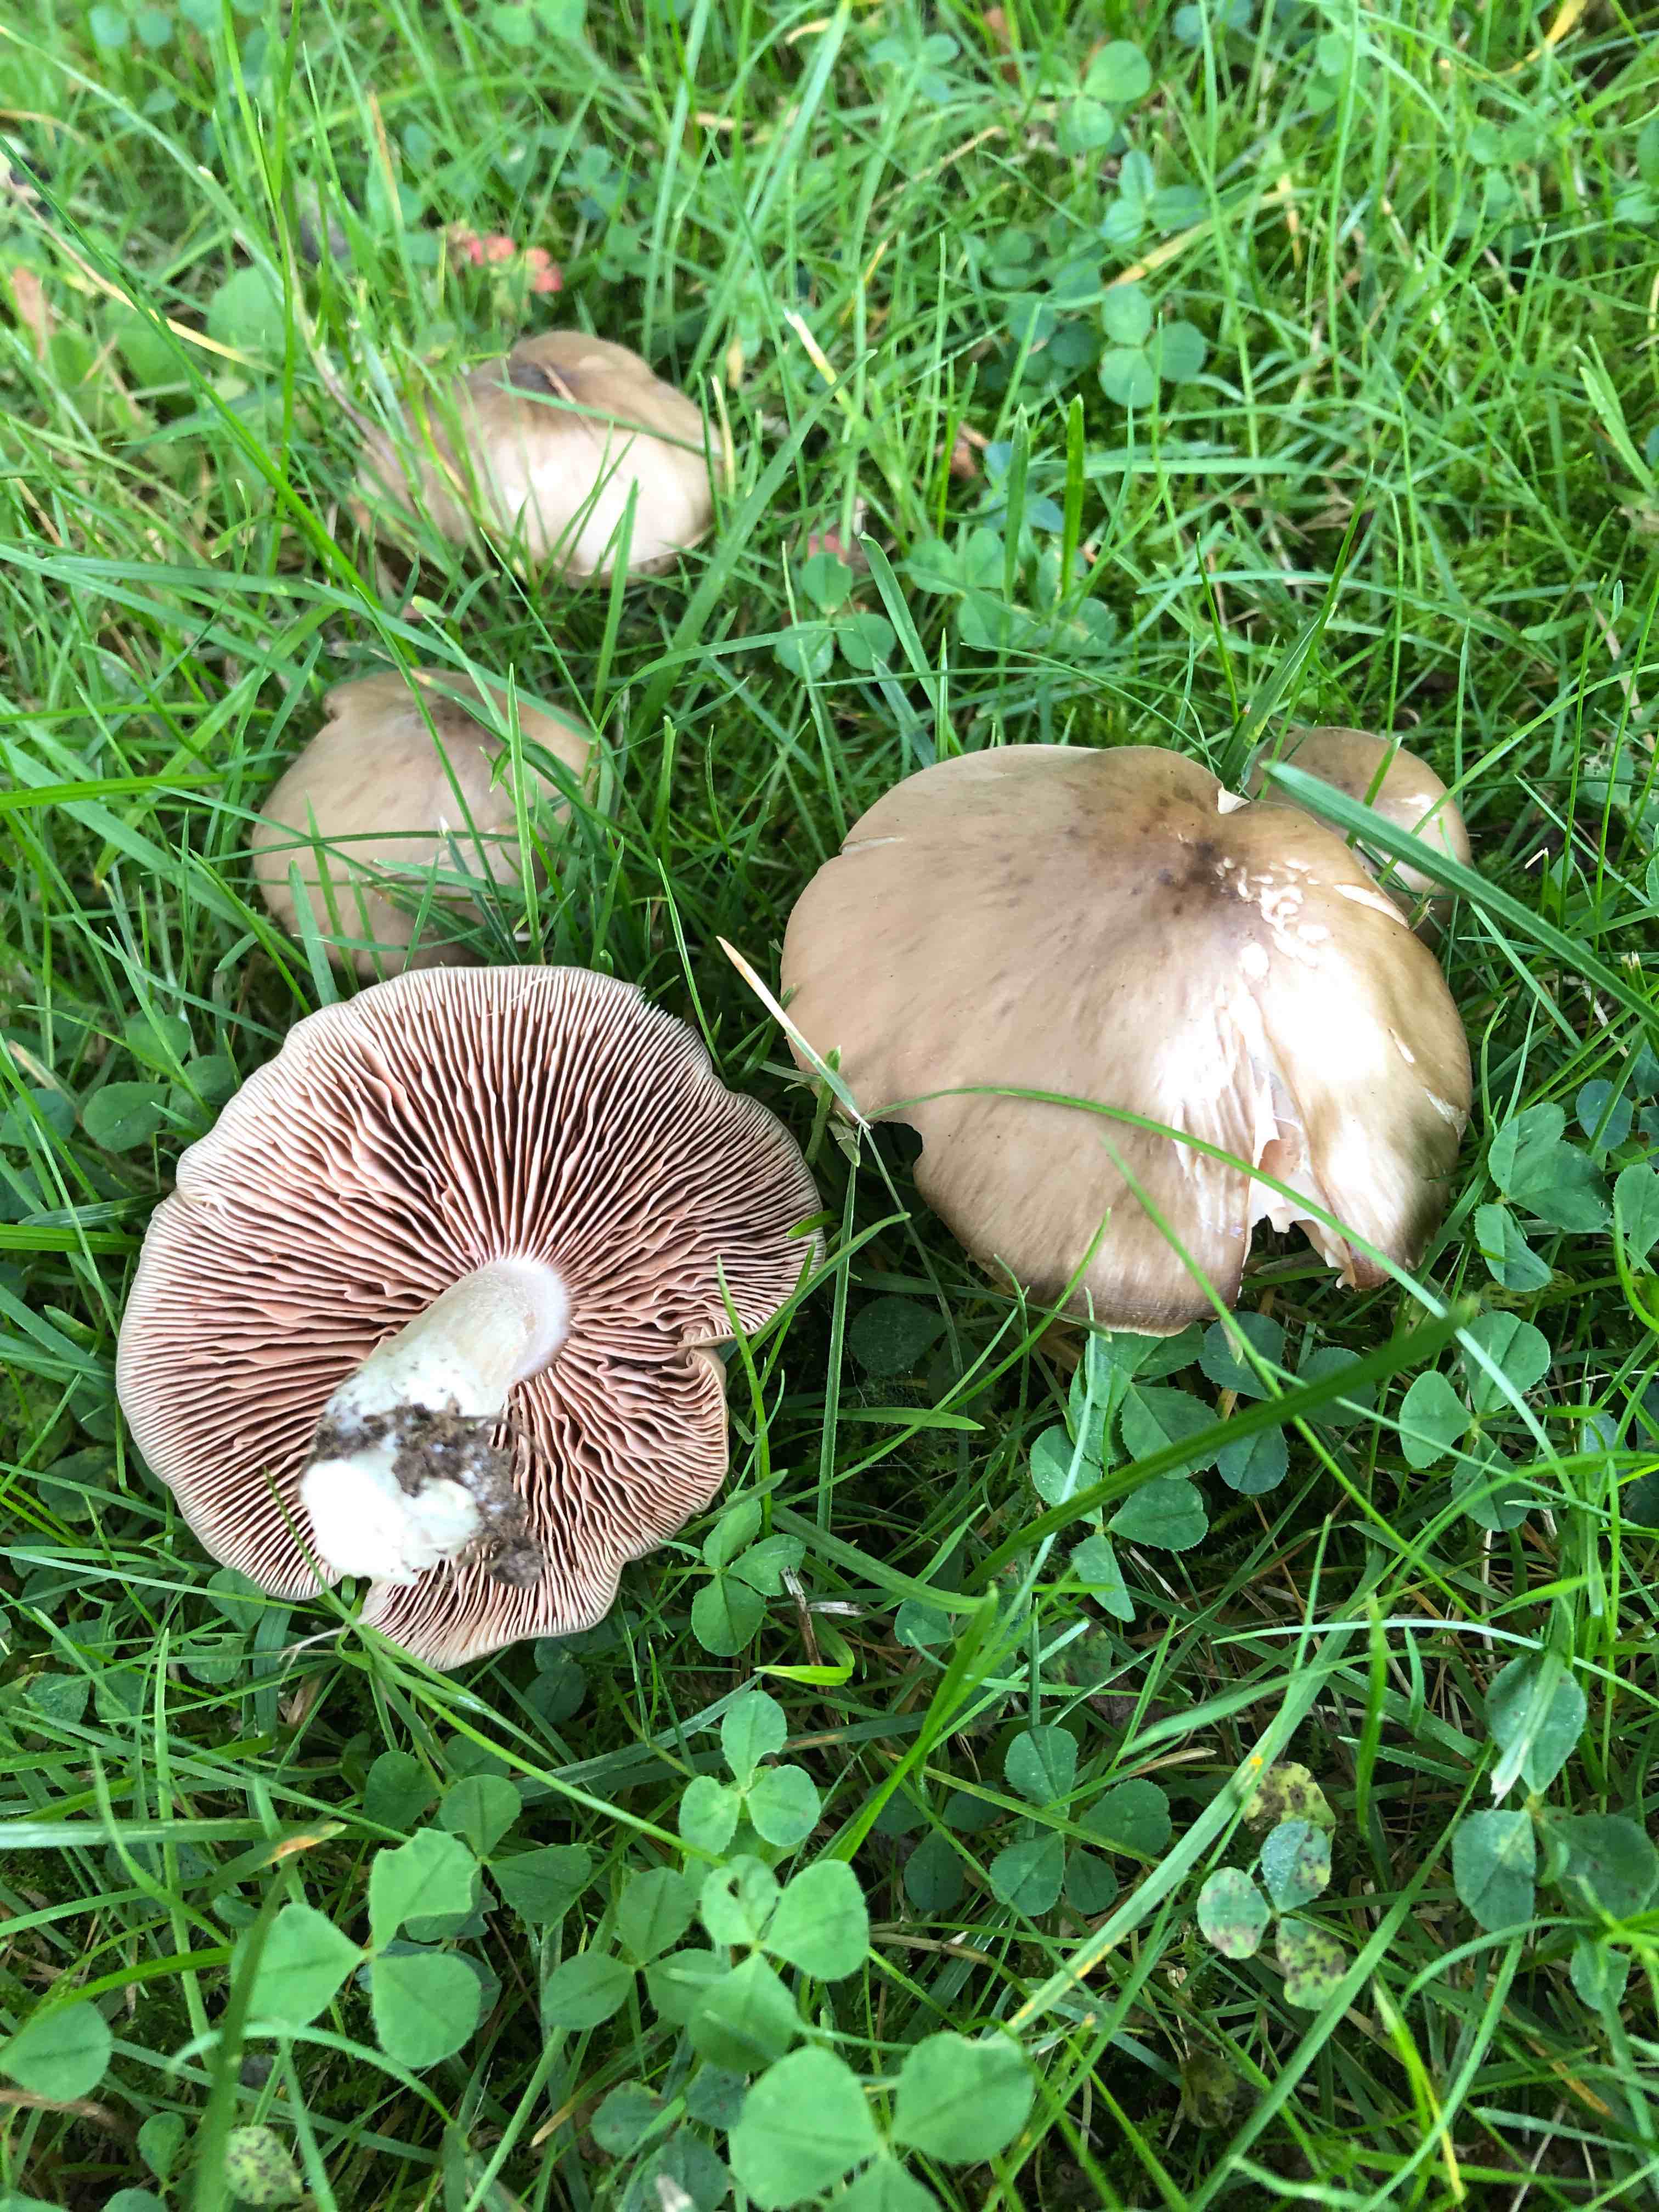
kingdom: Fungi
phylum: Basidiomycota
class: Agaricomycetes
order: Agaricales
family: Entolomataceae
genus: Entoloma
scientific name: Entoloma lividoalbum
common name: lysstokket rødblad
